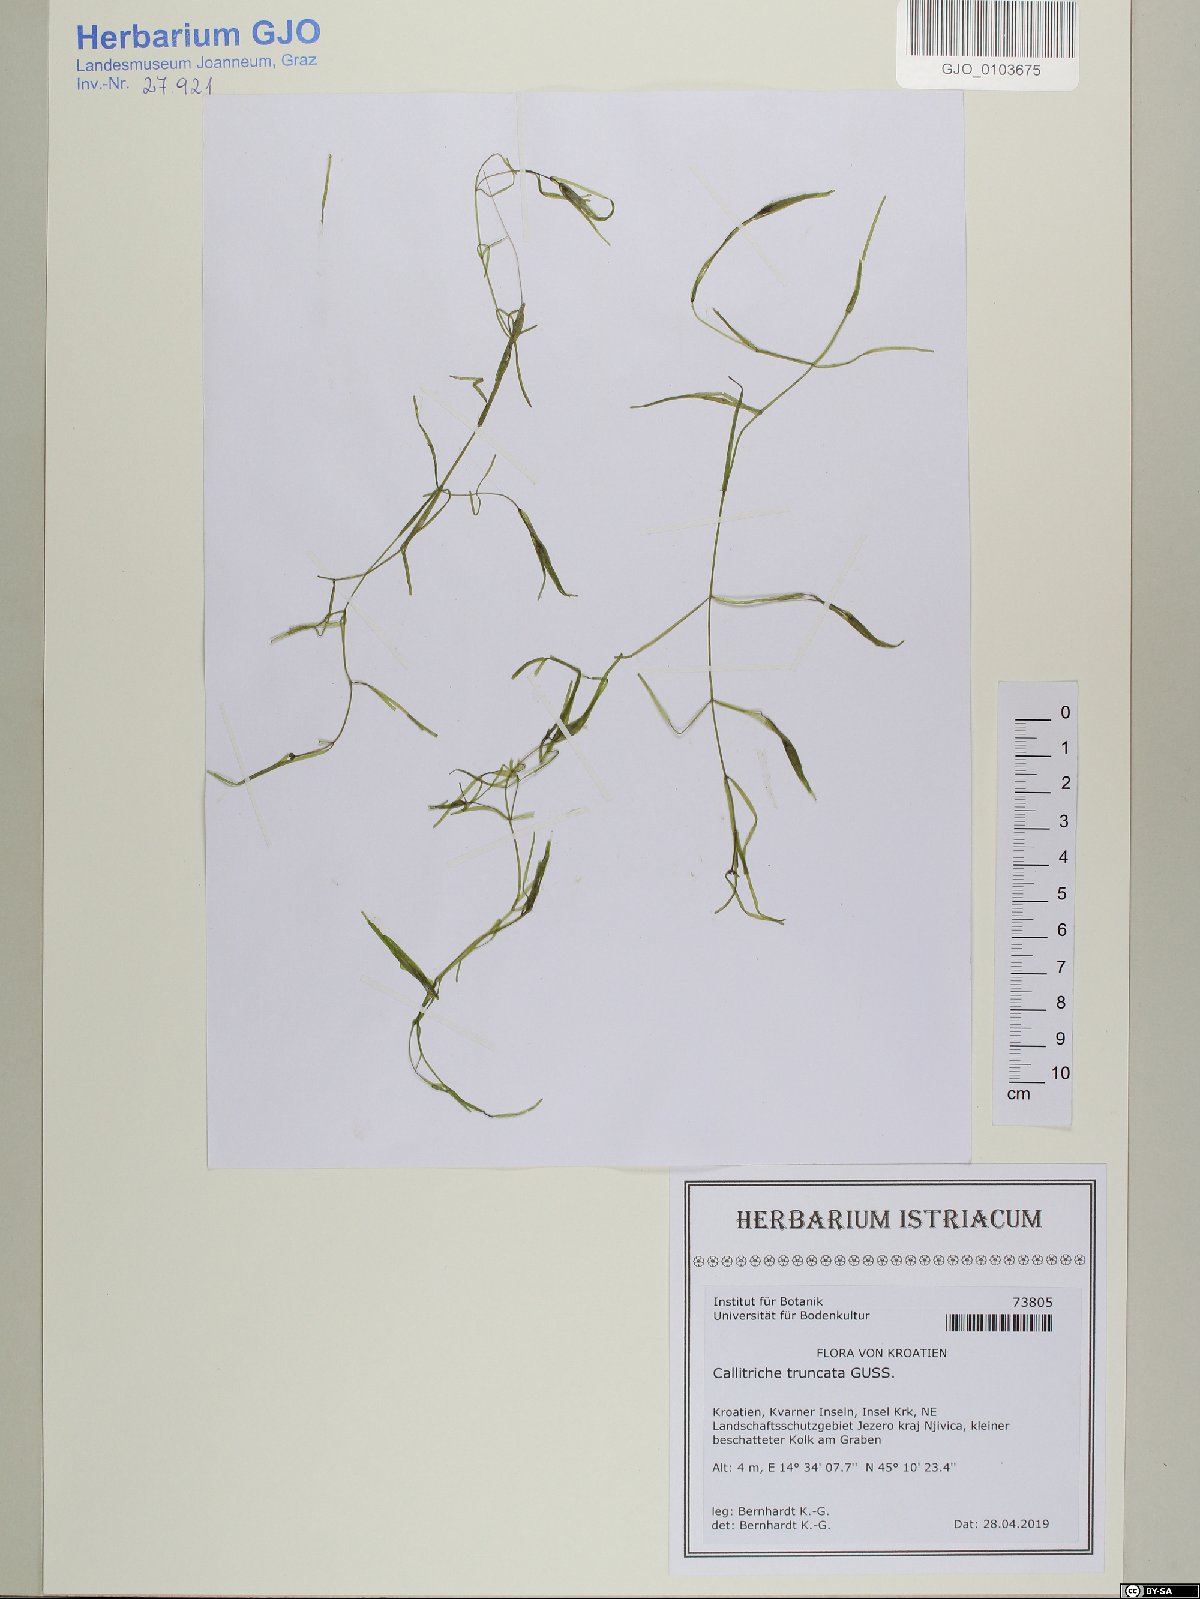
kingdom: Plantae
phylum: Tracheophyta
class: Magnoliopsida
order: Lamiales
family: Plantaginaceae
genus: Callitriche
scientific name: Callitriche truncata
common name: Short-leaved water-starwort
